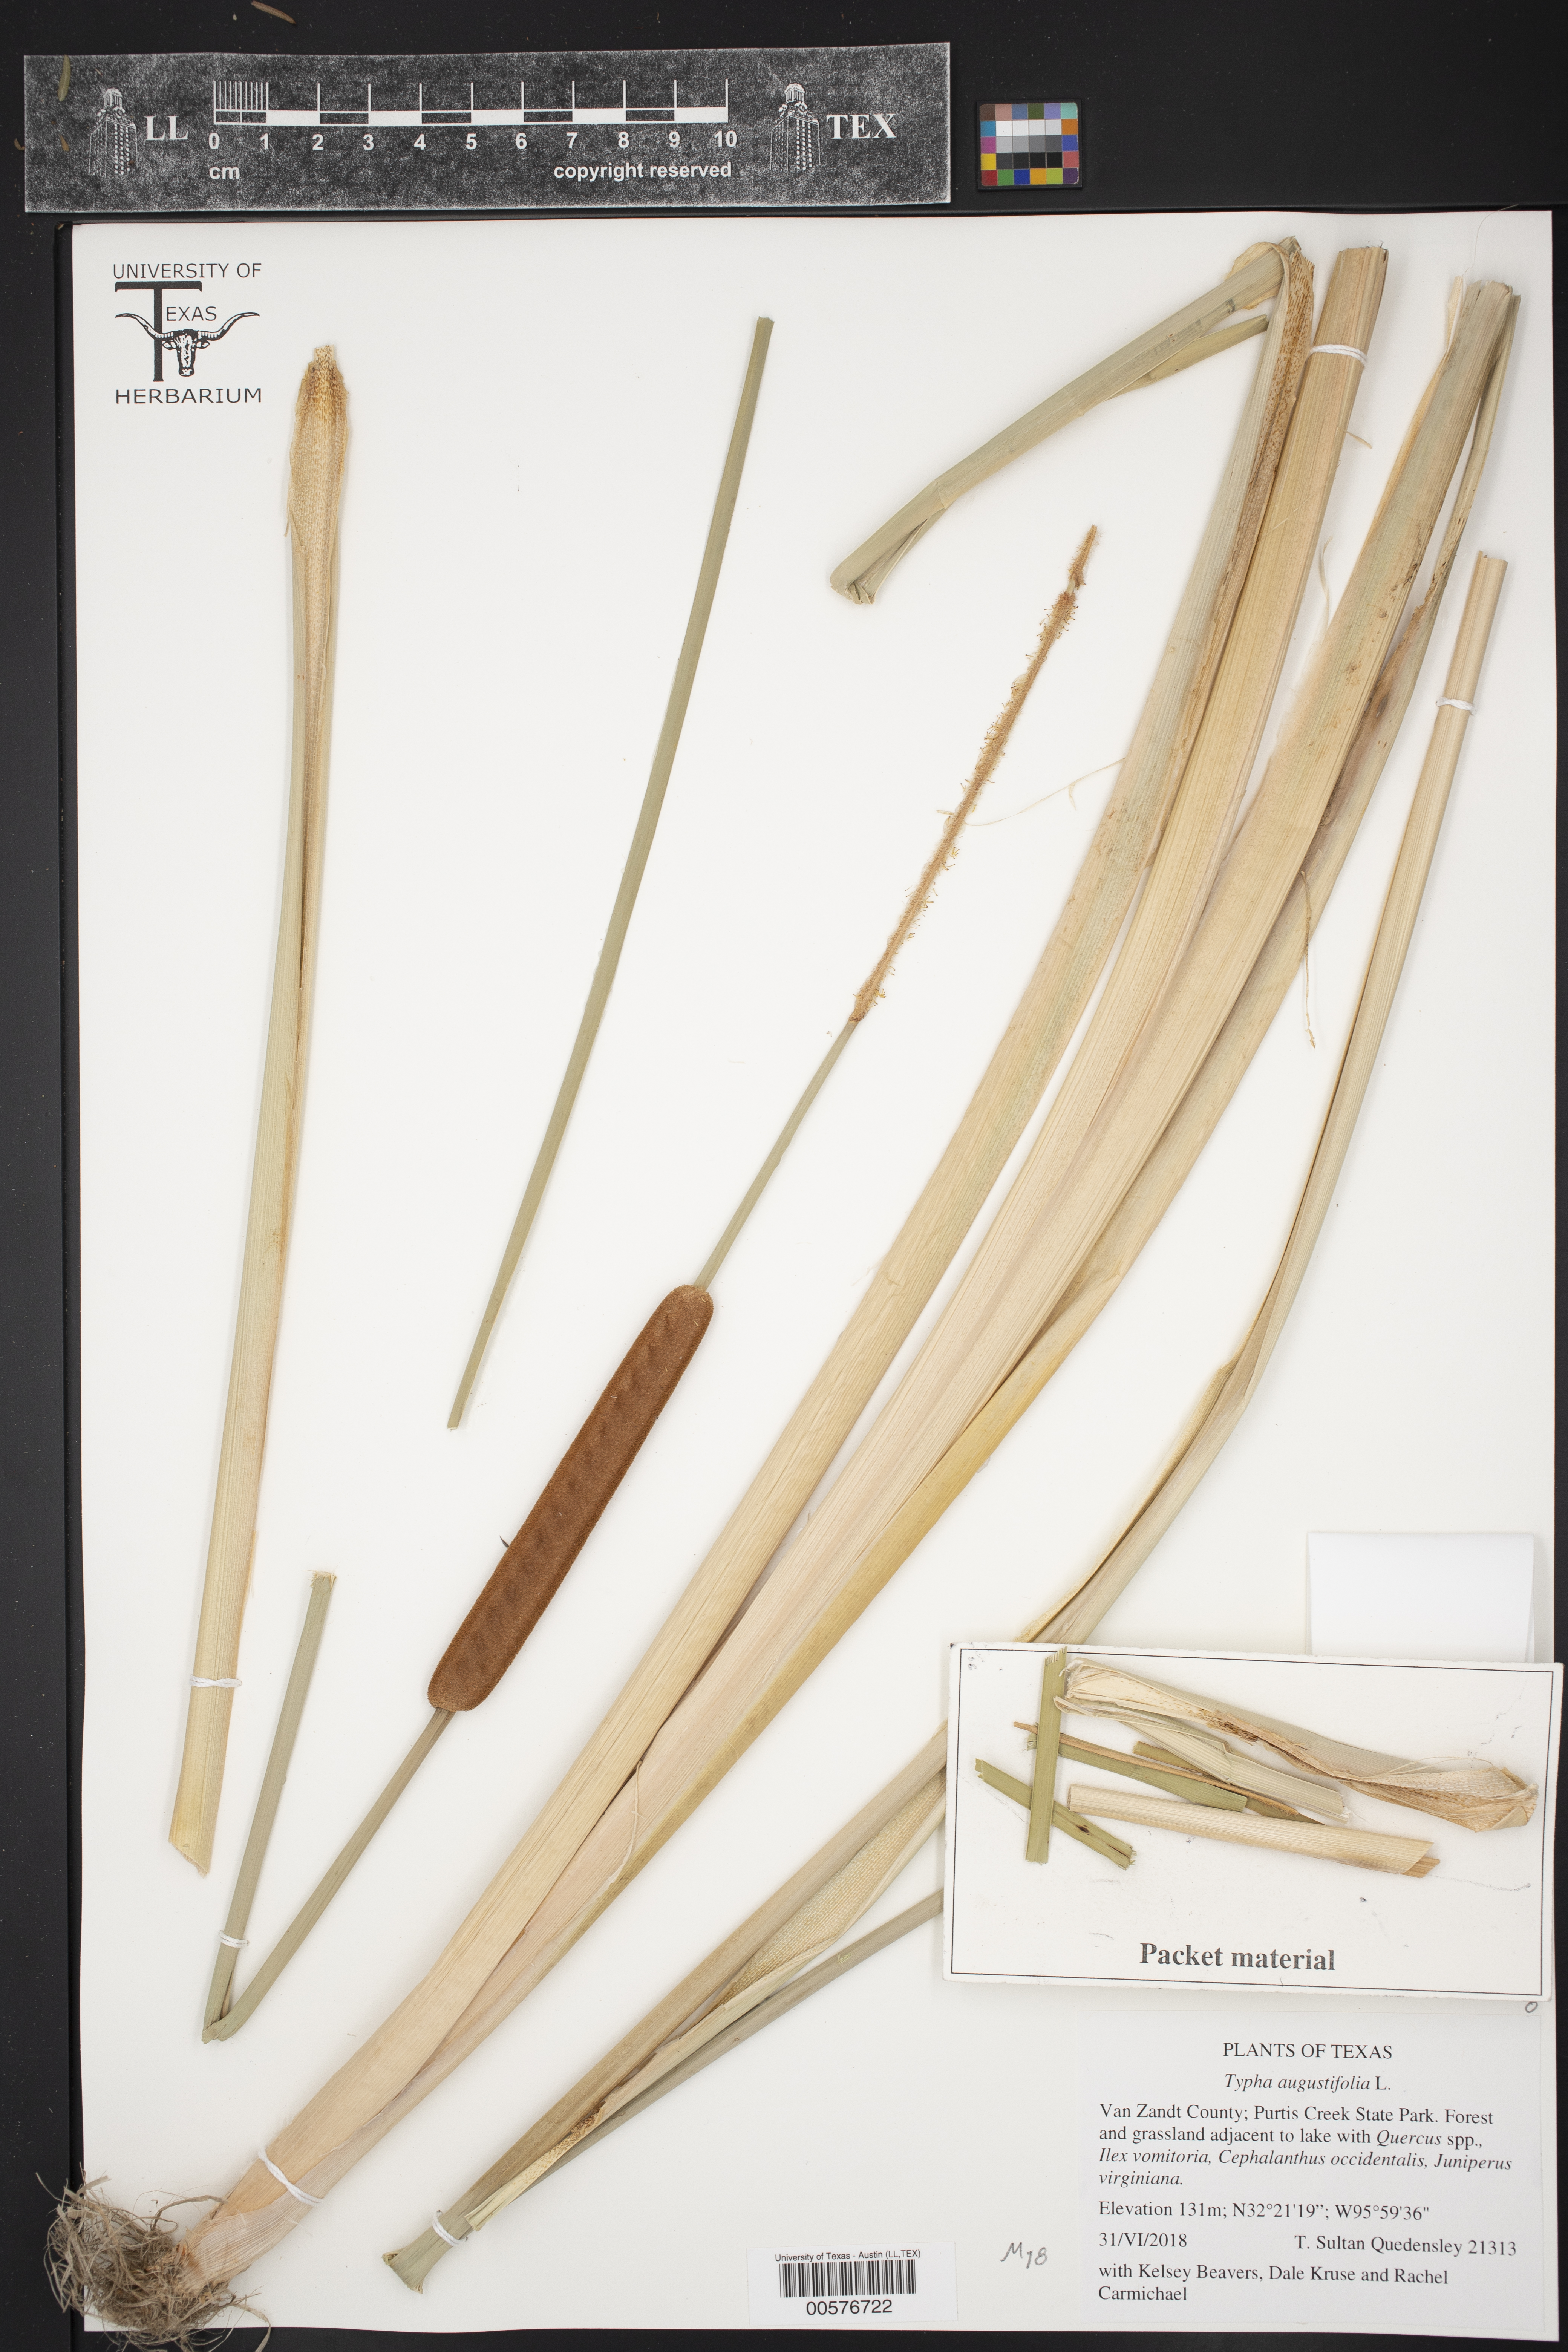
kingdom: Plantae
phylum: Tracheophyta
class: Liliopsida
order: Poales
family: Typhaceae
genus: Typha
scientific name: Typha angustifolia
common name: Lesser bulrush
